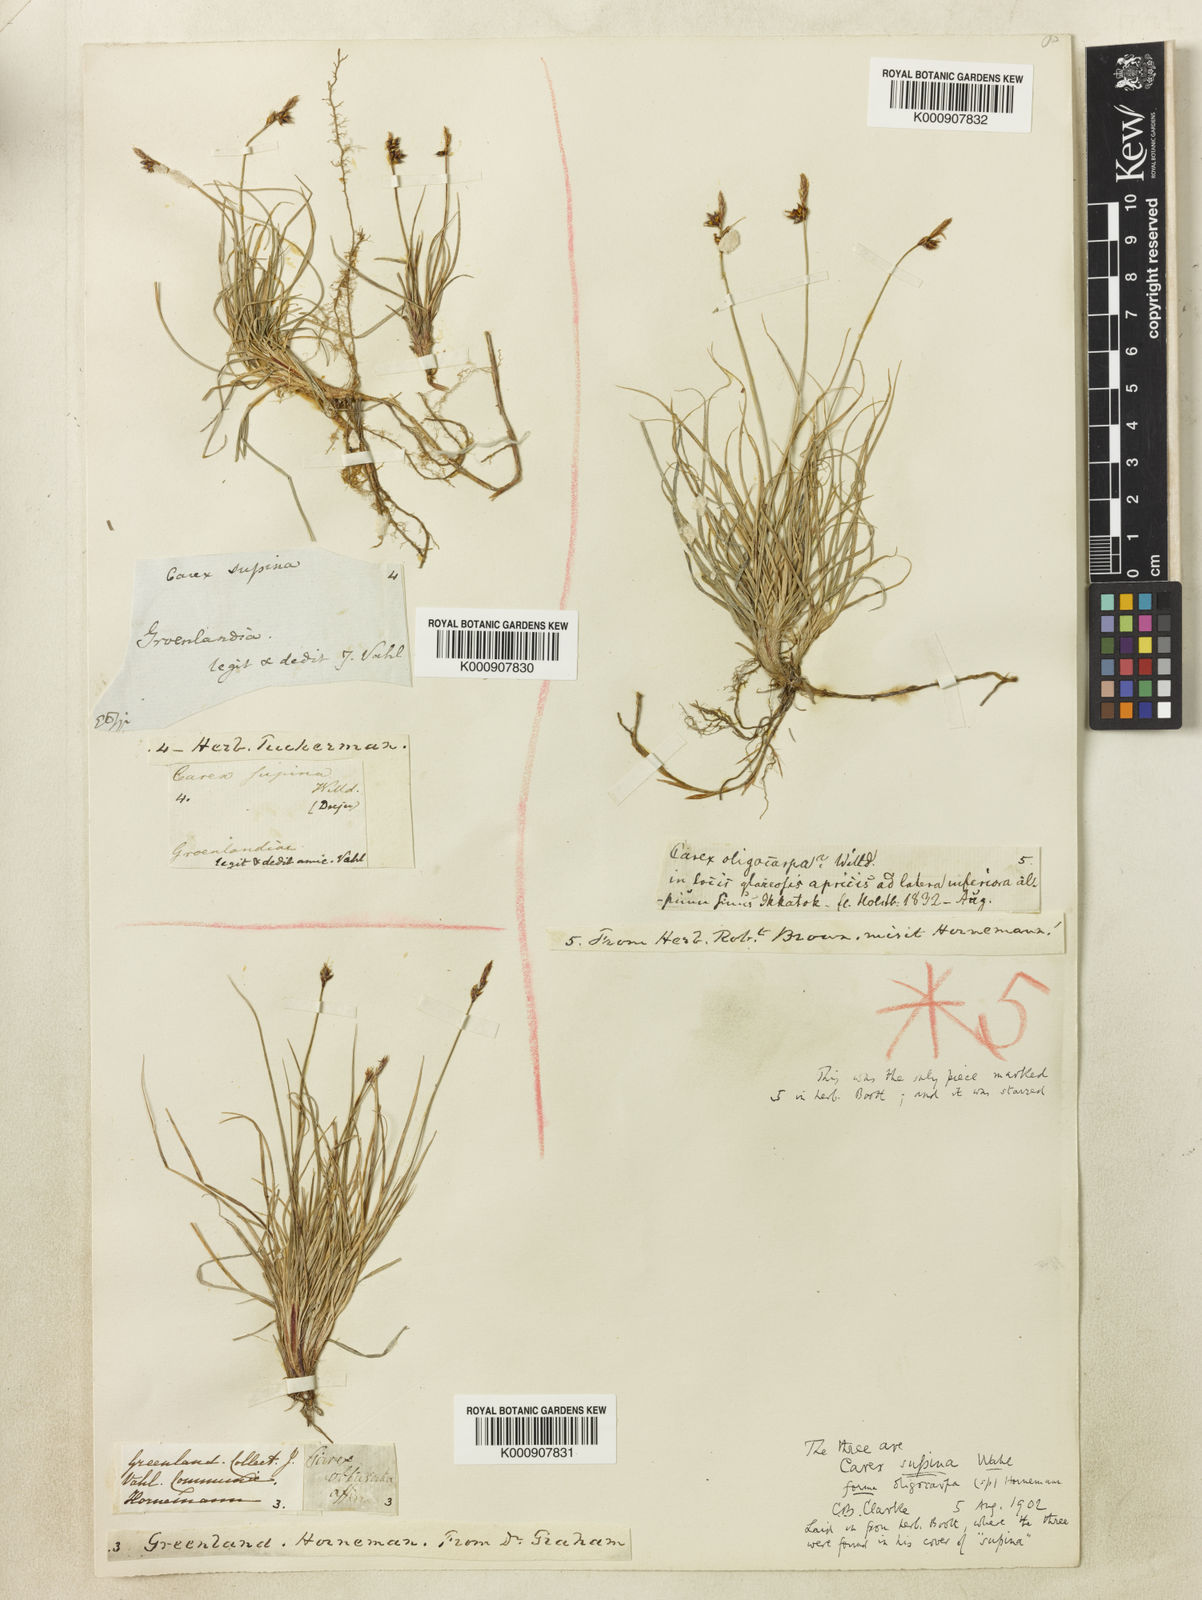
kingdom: Plantae
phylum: Tracheophyta
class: Liliopsida
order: Poales
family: Cyperaceae
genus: Carex
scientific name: Carex supina
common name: Lying-back sedge
